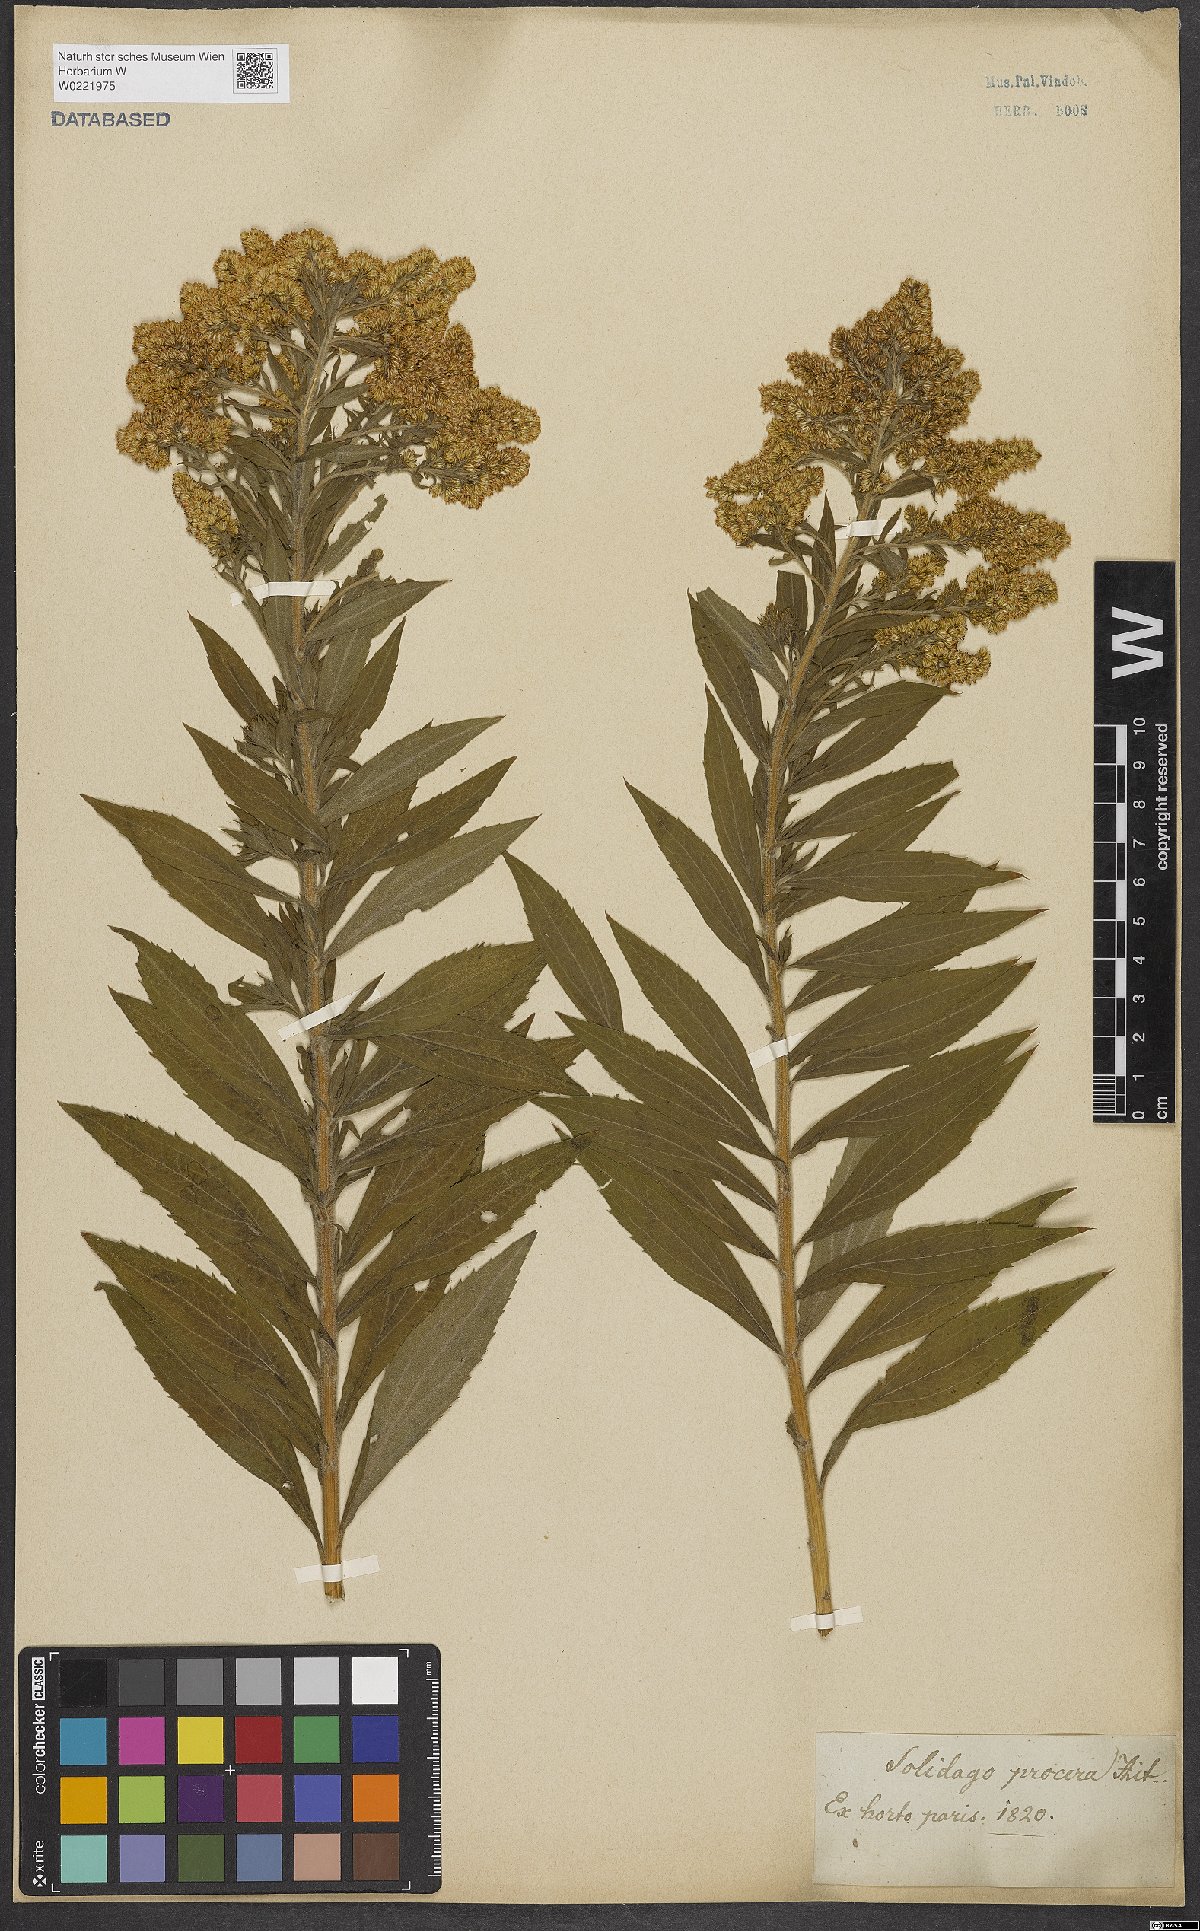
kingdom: Plantae
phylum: Tracheophyta
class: Magnoliopsida
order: Asterales
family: Asteraceae
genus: Solidago
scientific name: Solidago altissima
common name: Late goldenrod
